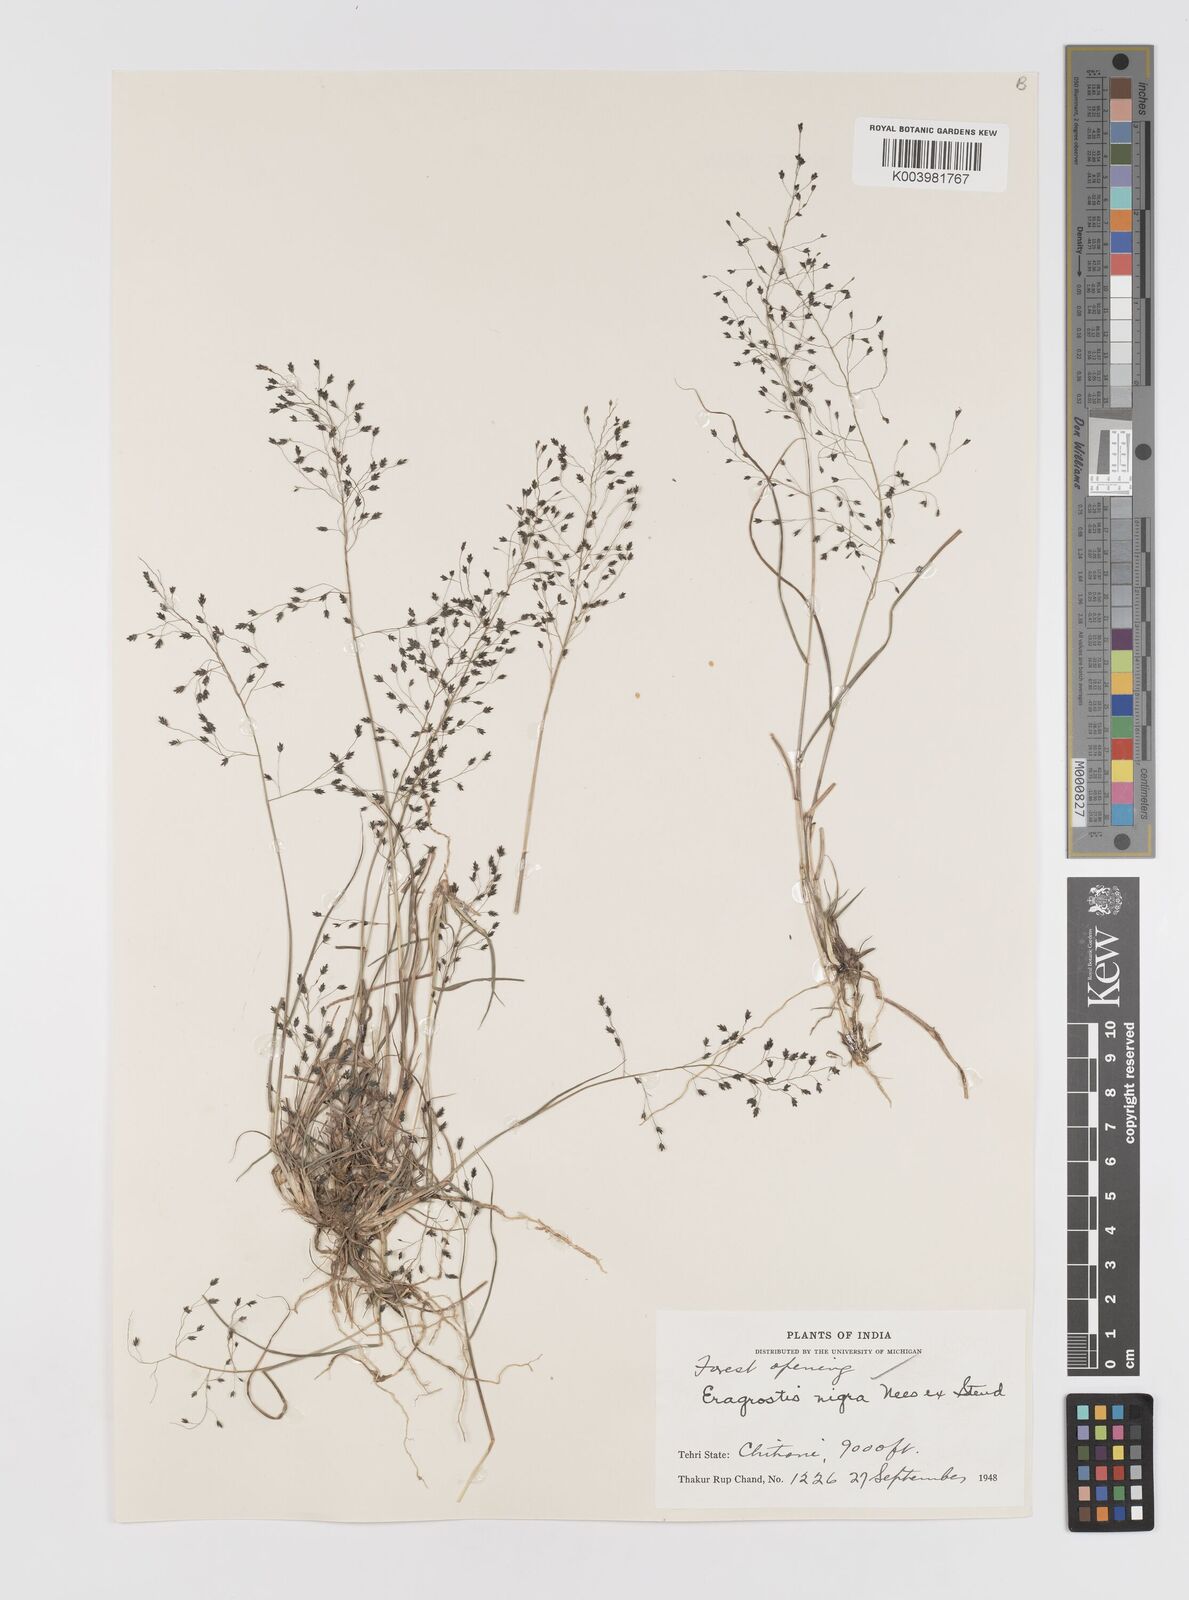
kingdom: Plantae
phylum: Tracheophyta
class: Liliopsida
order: Poales
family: Poaceae
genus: Eragrostis
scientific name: Eragrostis nigra
